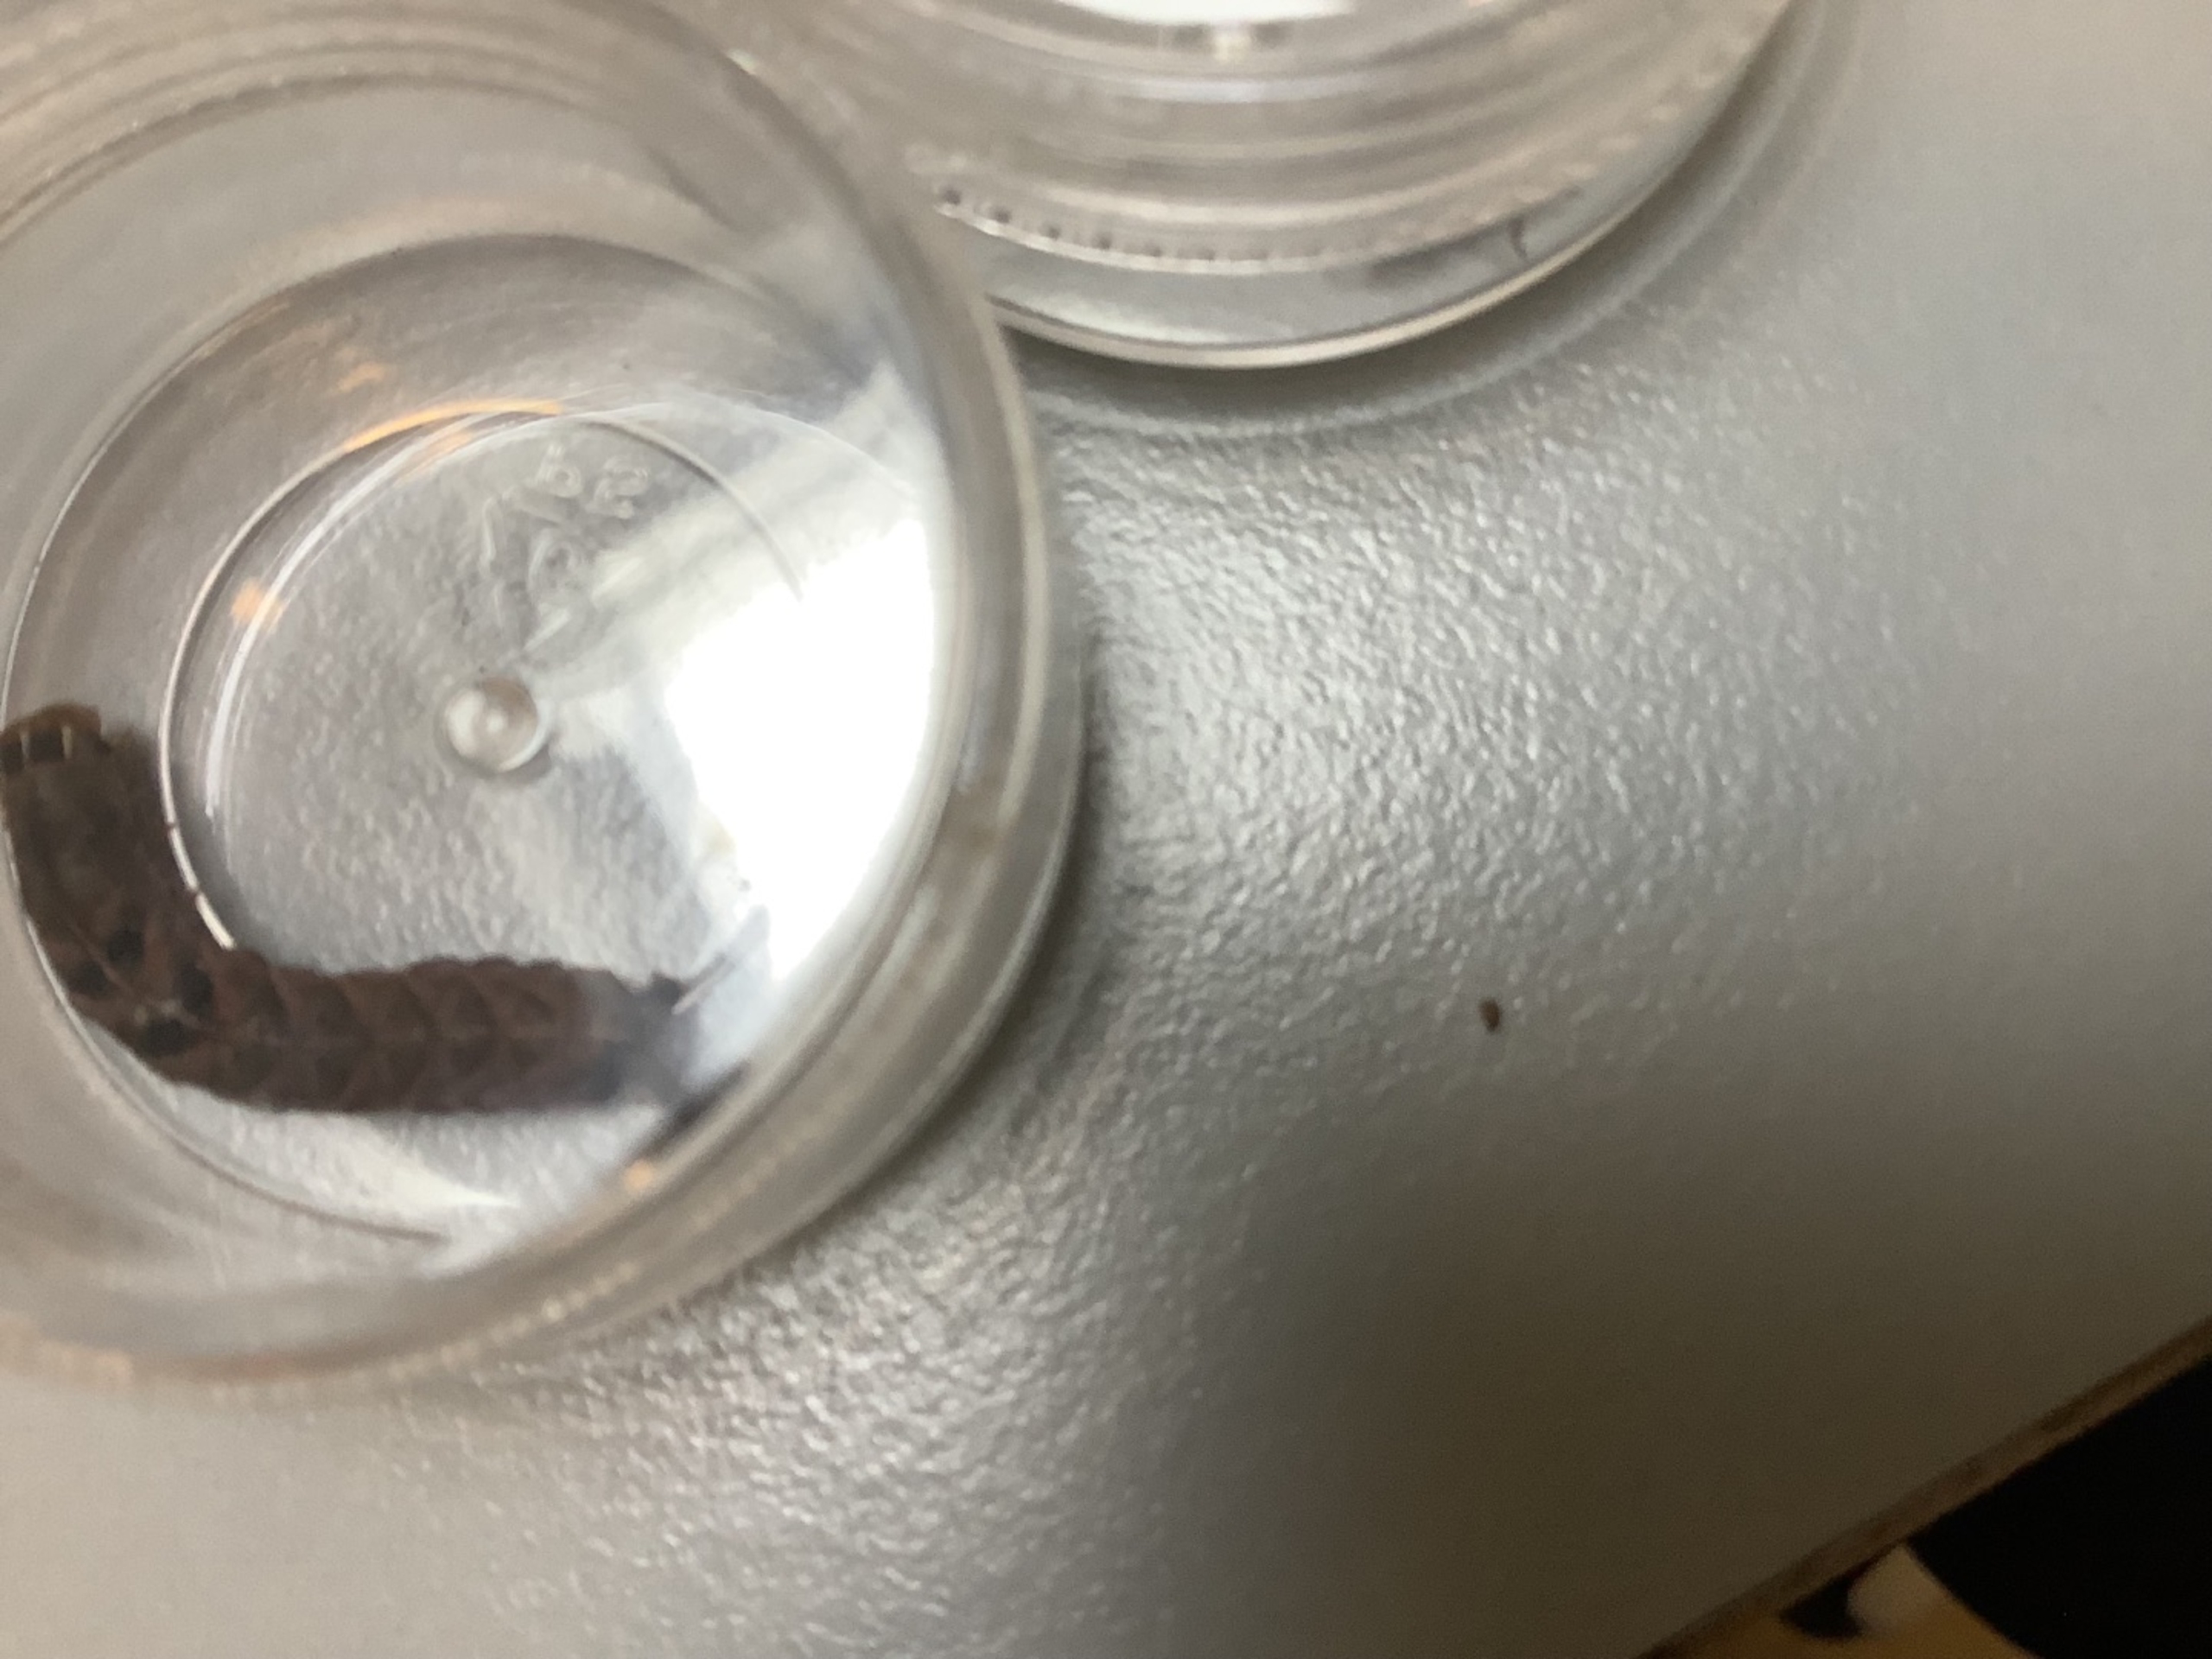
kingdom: Animalia
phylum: Arthropoda
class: Insecta
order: Lepidoptera
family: Noctuidae
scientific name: Noctuidae
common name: Ugler
